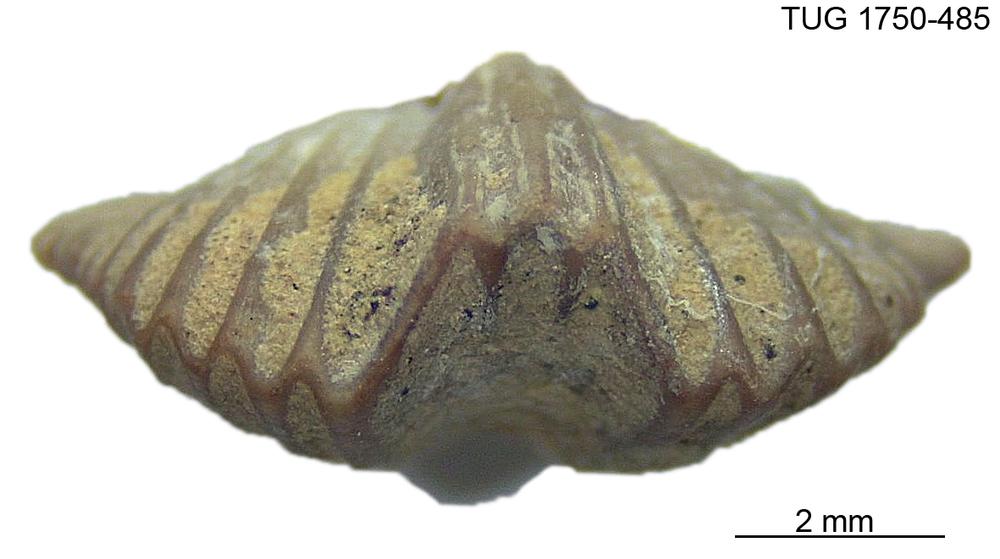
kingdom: Animalia
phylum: Brachiopoda
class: Rhynchonellata
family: Plectorthidae
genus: Platystrophia
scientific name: Platystrophia
